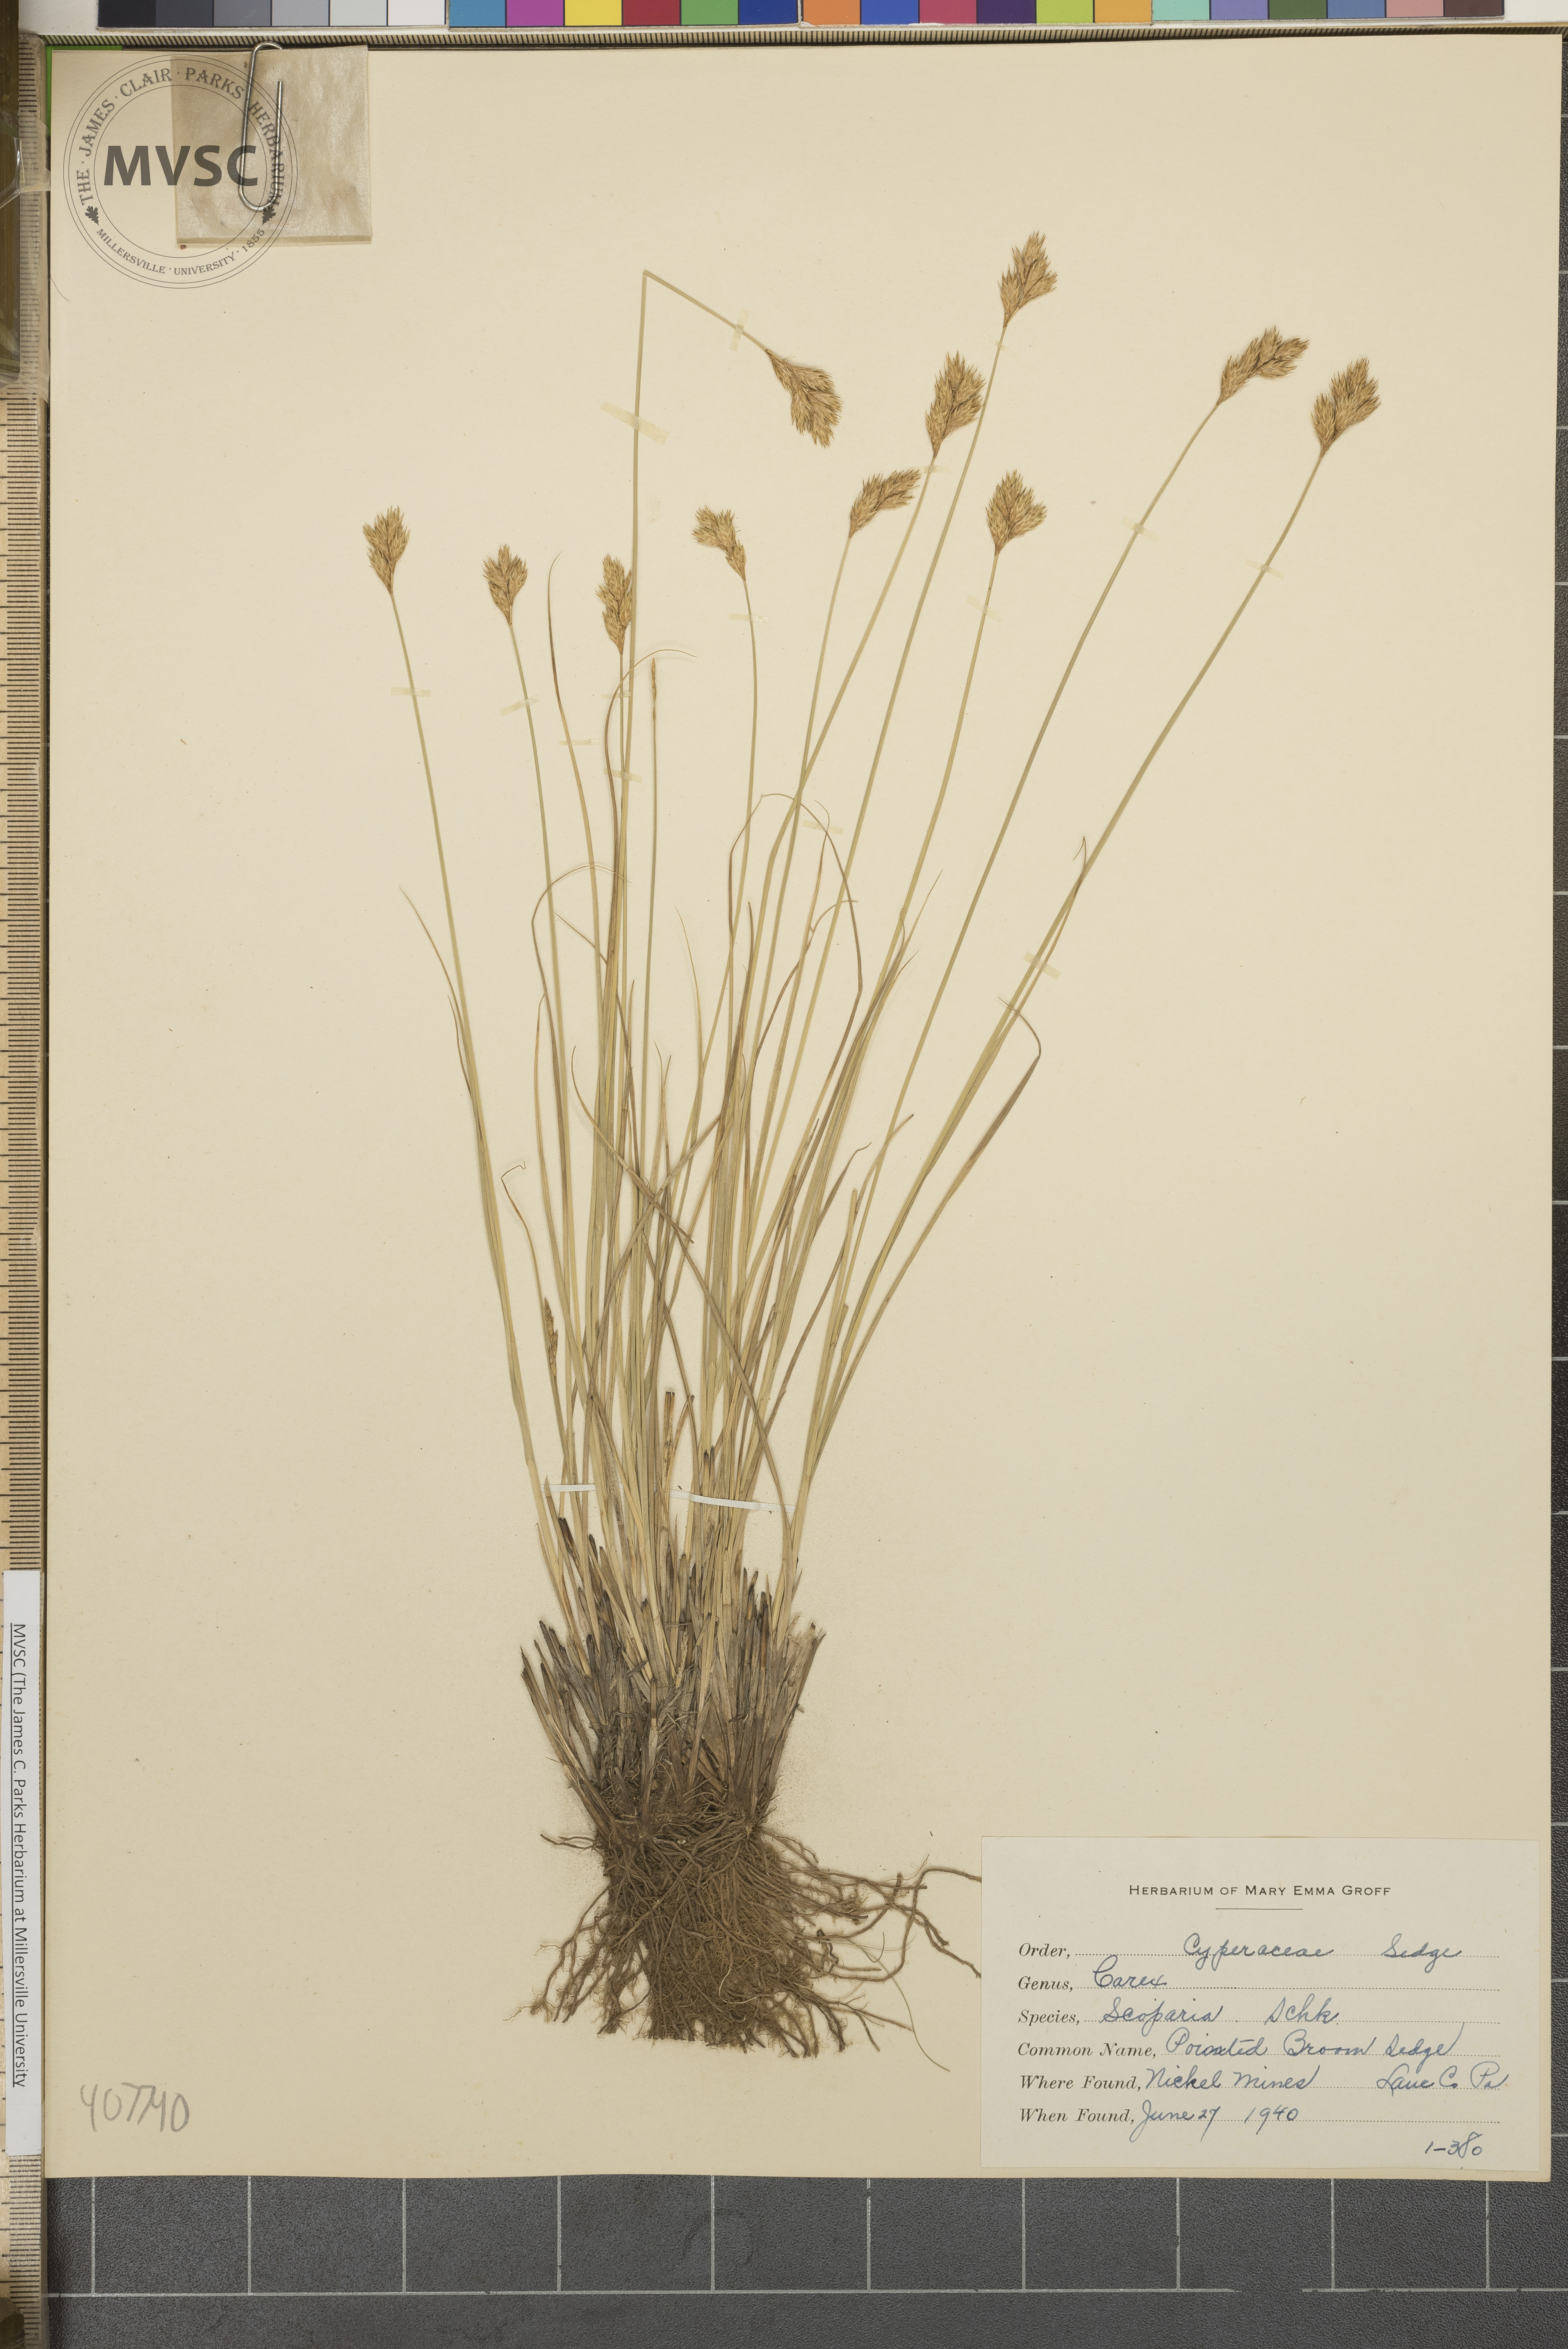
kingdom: Plantae
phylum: Tracheophyta
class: Liliopsida
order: Poales
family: Cyperaceae
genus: Carex
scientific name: Carex scoparia
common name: Pointed Broom Sedge
